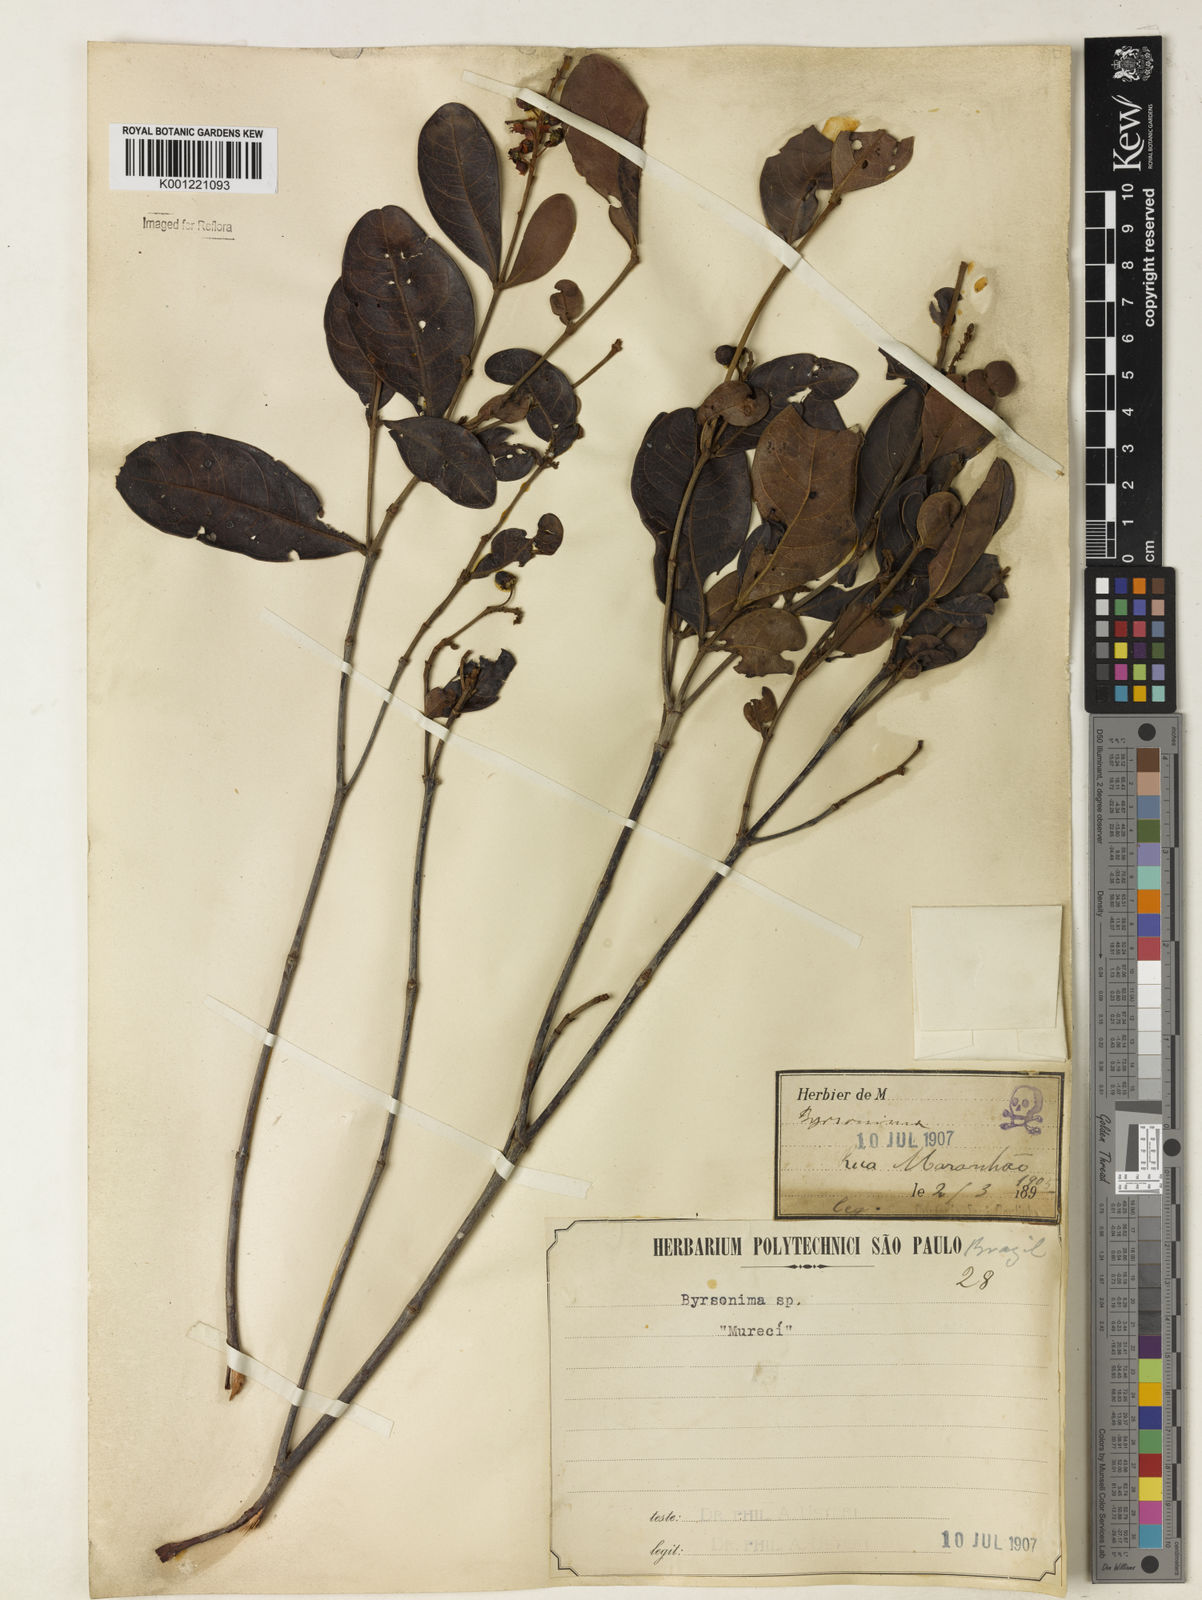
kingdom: Plantae
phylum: Tracheophyta
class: Magnoliopsida
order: Malpighiales
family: Malpighiaceae
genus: Byrsonima
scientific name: Byrsonima intermedia
